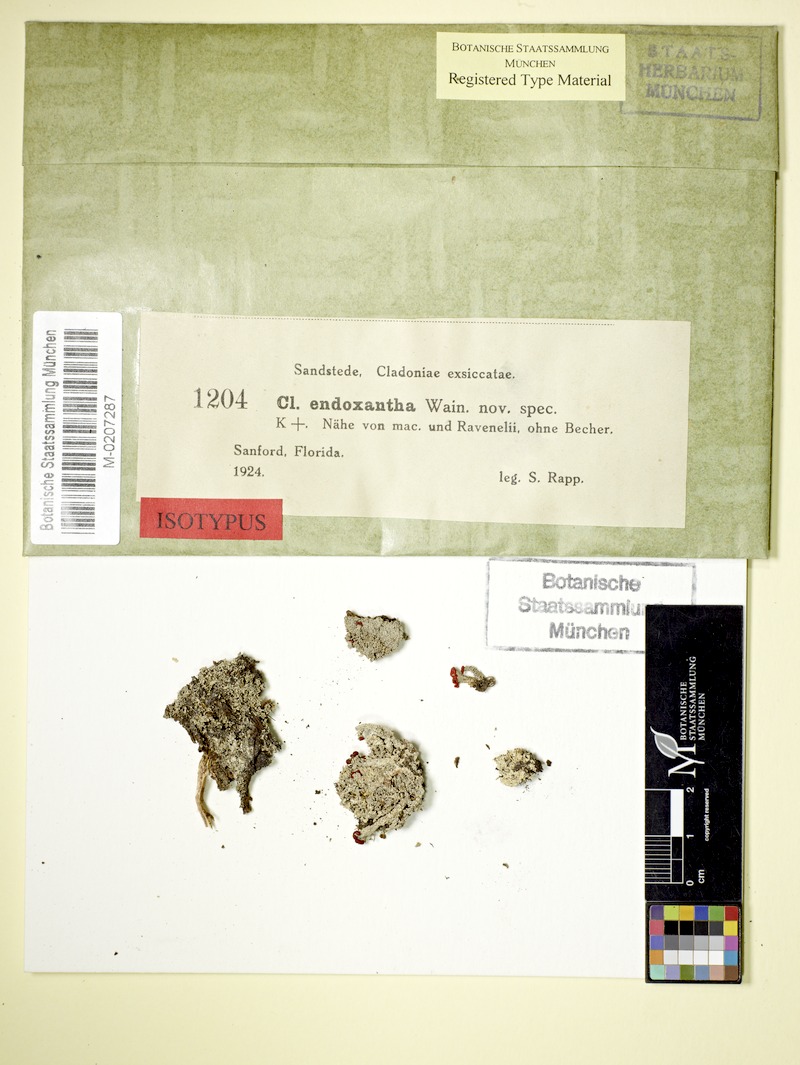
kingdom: Fungi
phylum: Ascomycota
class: Lecanoromycetes
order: Lecanorales
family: Cladoniaceae
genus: Cladonia
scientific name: Cladonia endoxantha
